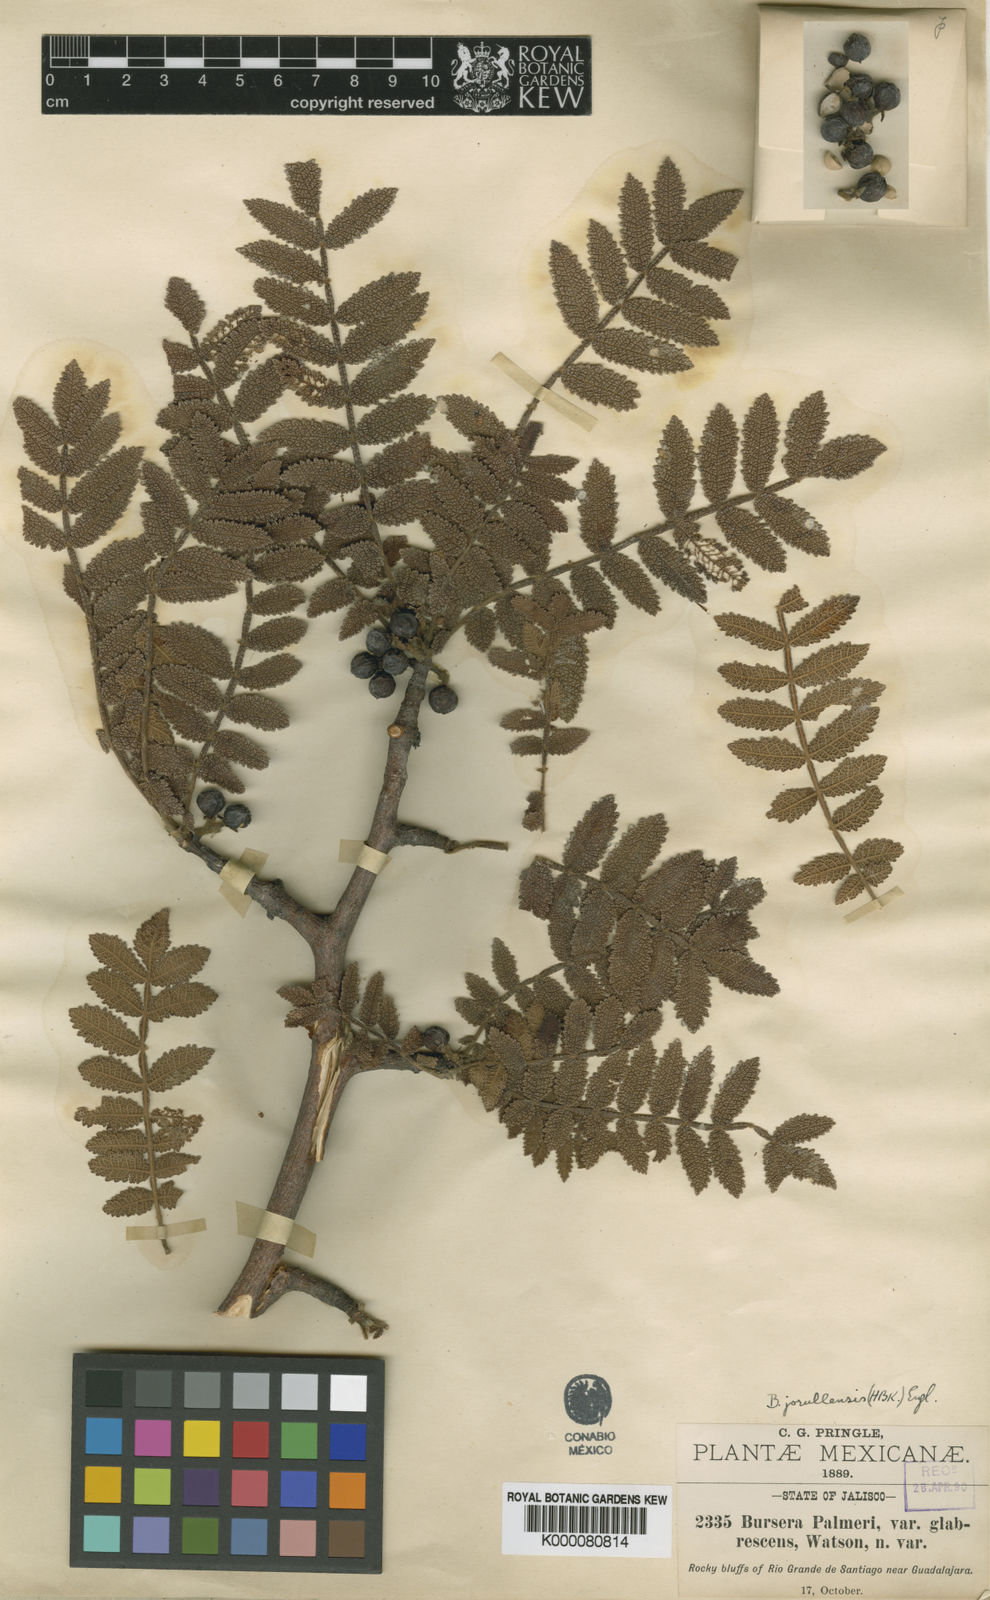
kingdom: Plantae
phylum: Tracheophyta
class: Magnoliopsida
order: Sapindales
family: Burseraceae
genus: Bursera
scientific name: Bursera copallifera
